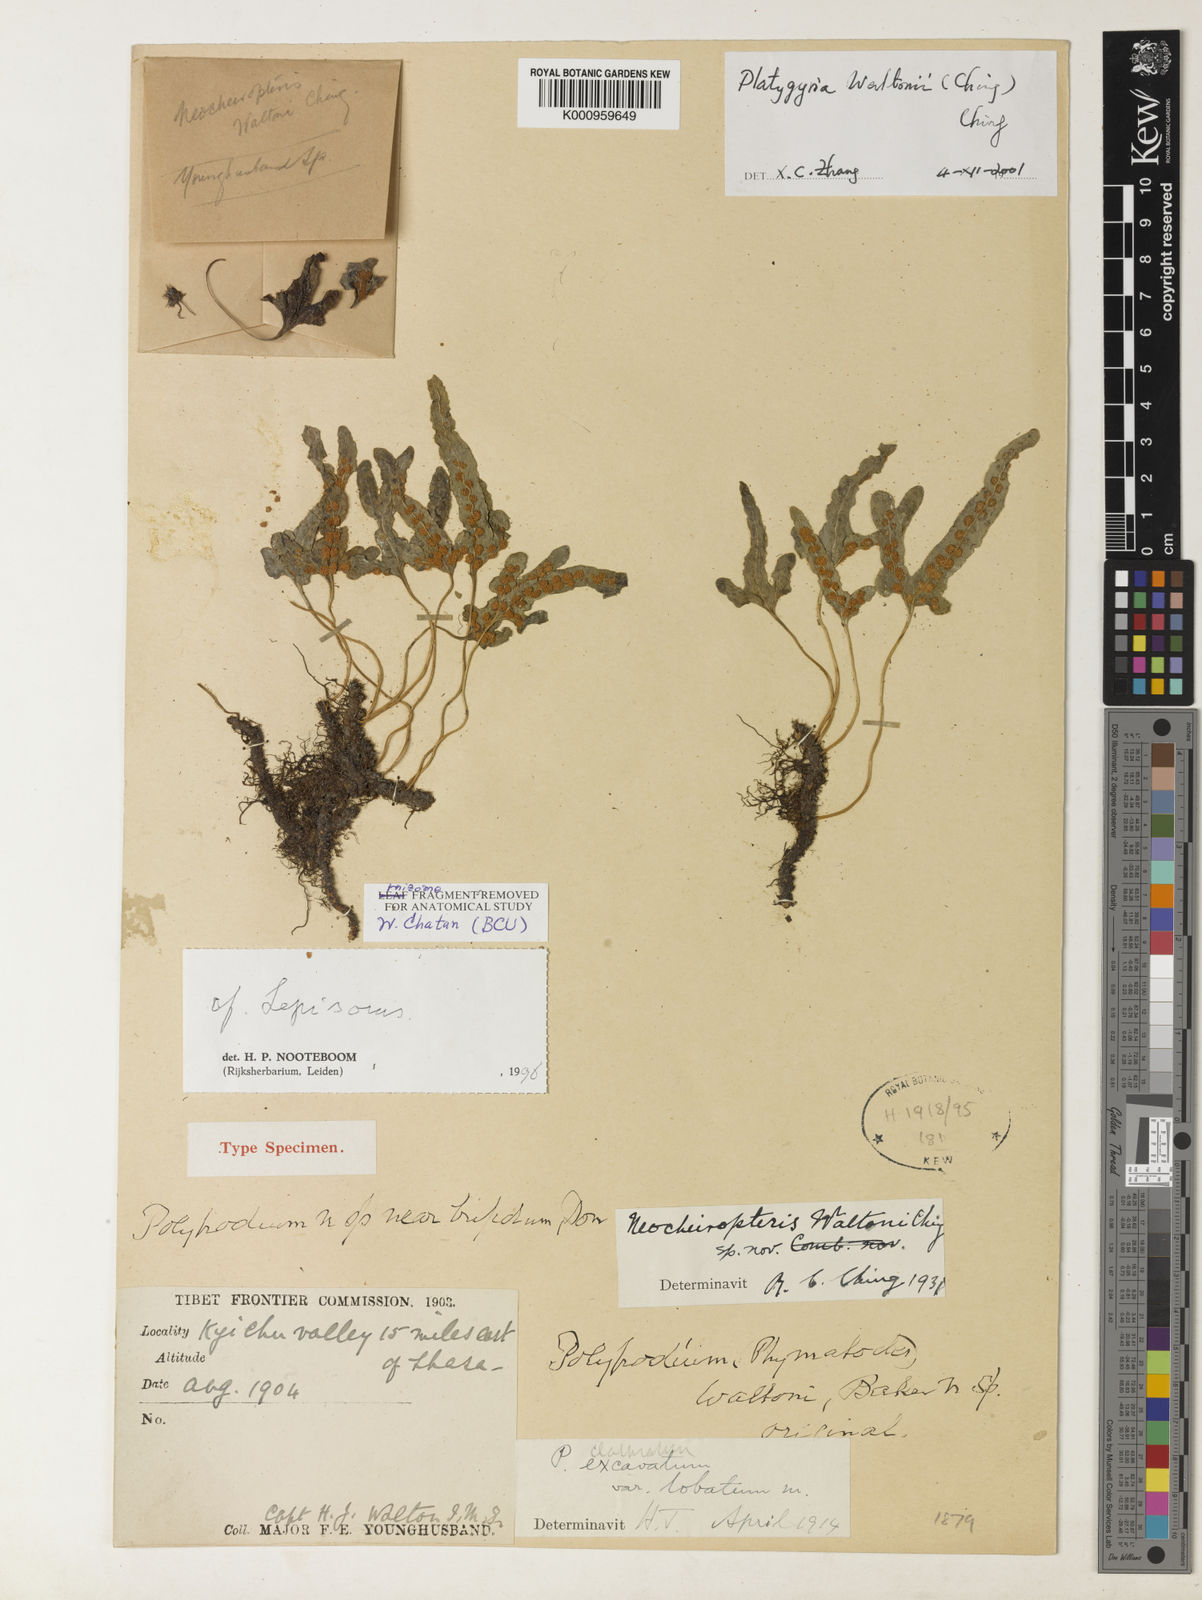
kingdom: Plantae
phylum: Tracheophyta
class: Polypodiopsida
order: Polypodiales
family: Polypodiaceae
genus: Lepisorus
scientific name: Lepisorus waltonii
